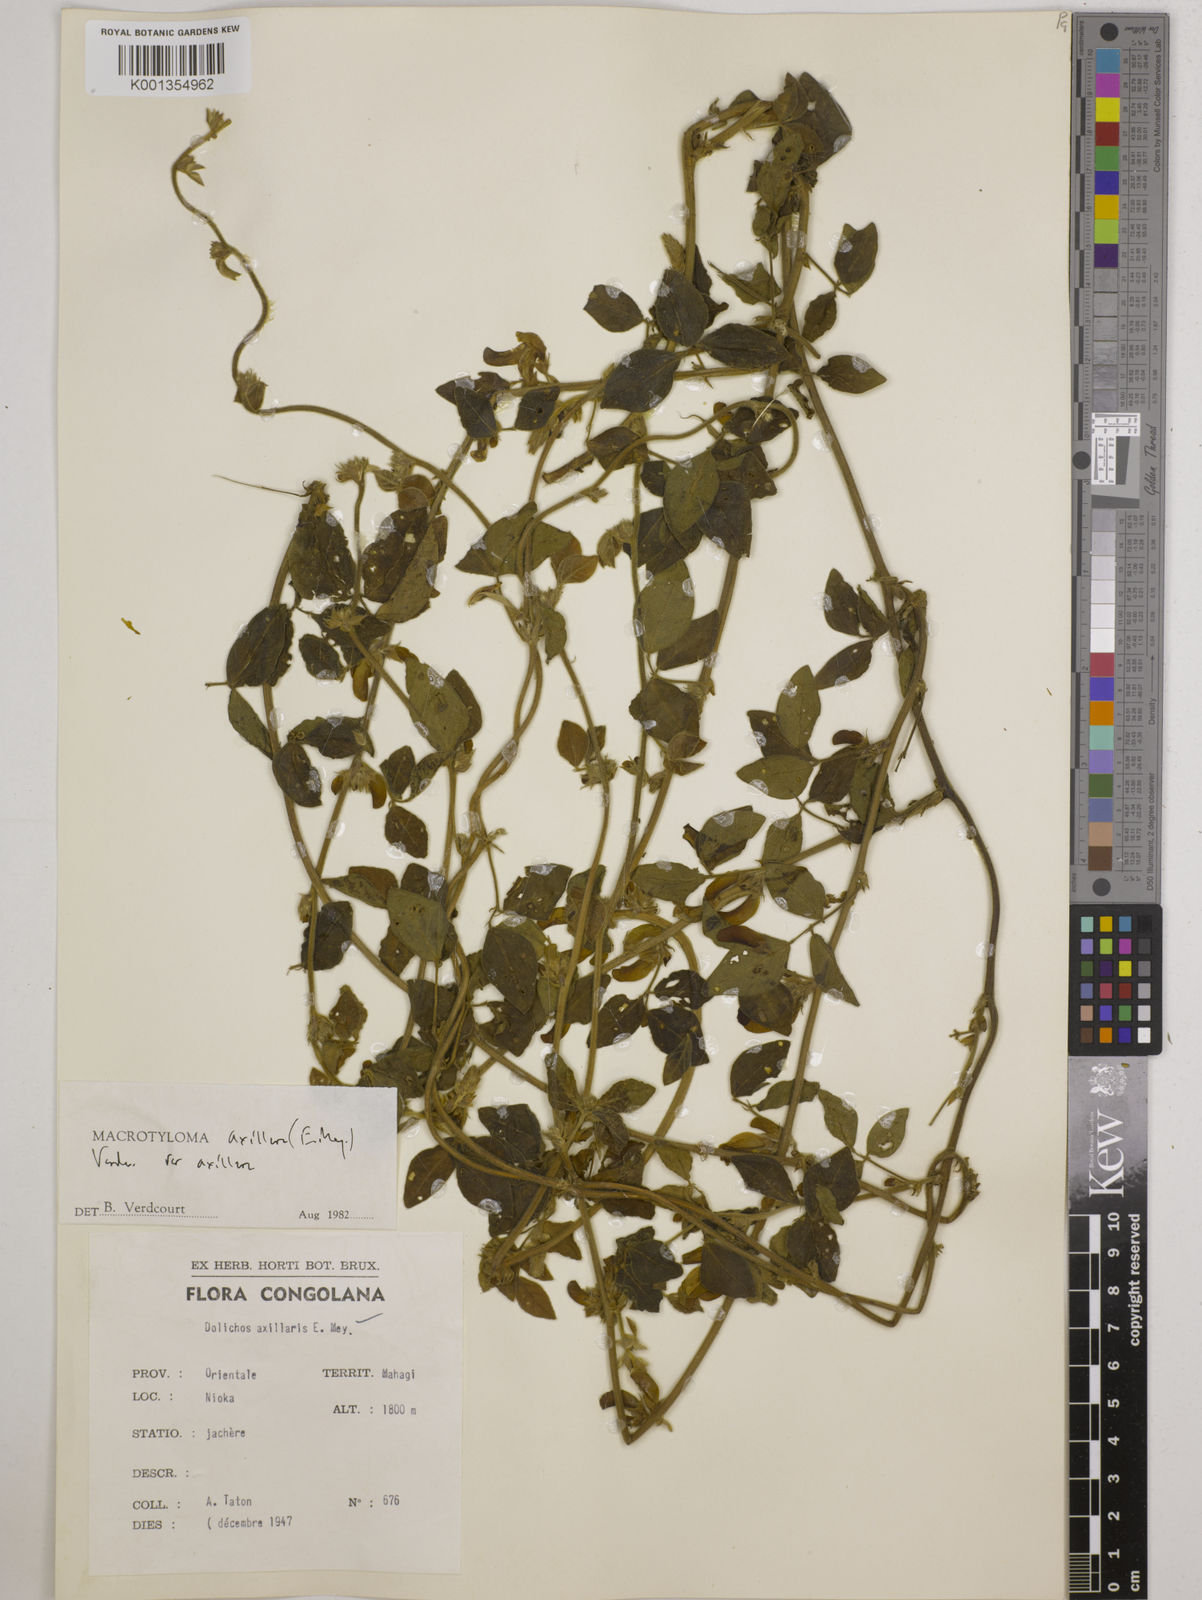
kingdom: Plantae
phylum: Tracheophyta
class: Magnoliopsida
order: Fabales
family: Fabaceae
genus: Macrotyloma
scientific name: Macrotyloma axillare
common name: Perennial horsegram
